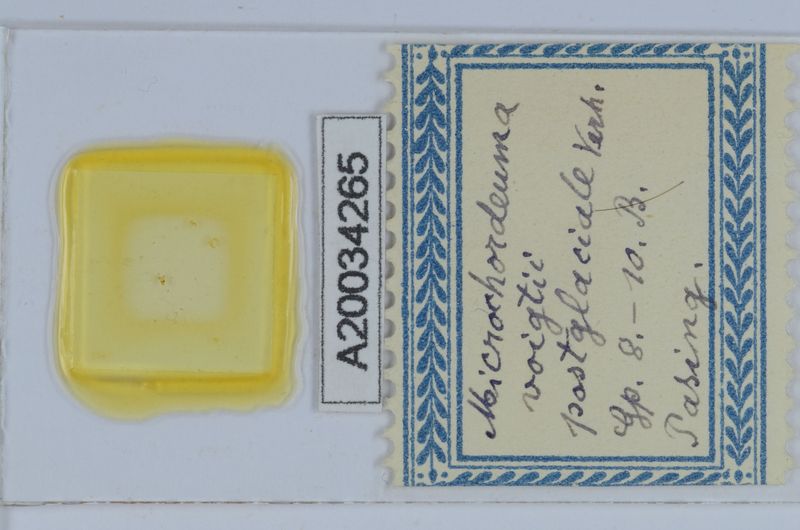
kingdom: Animalia
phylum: Arthropoda
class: Diplopoda
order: Chordeumatida
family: Chordeumatidae
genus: Melogona
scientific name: Melogona voigtii
